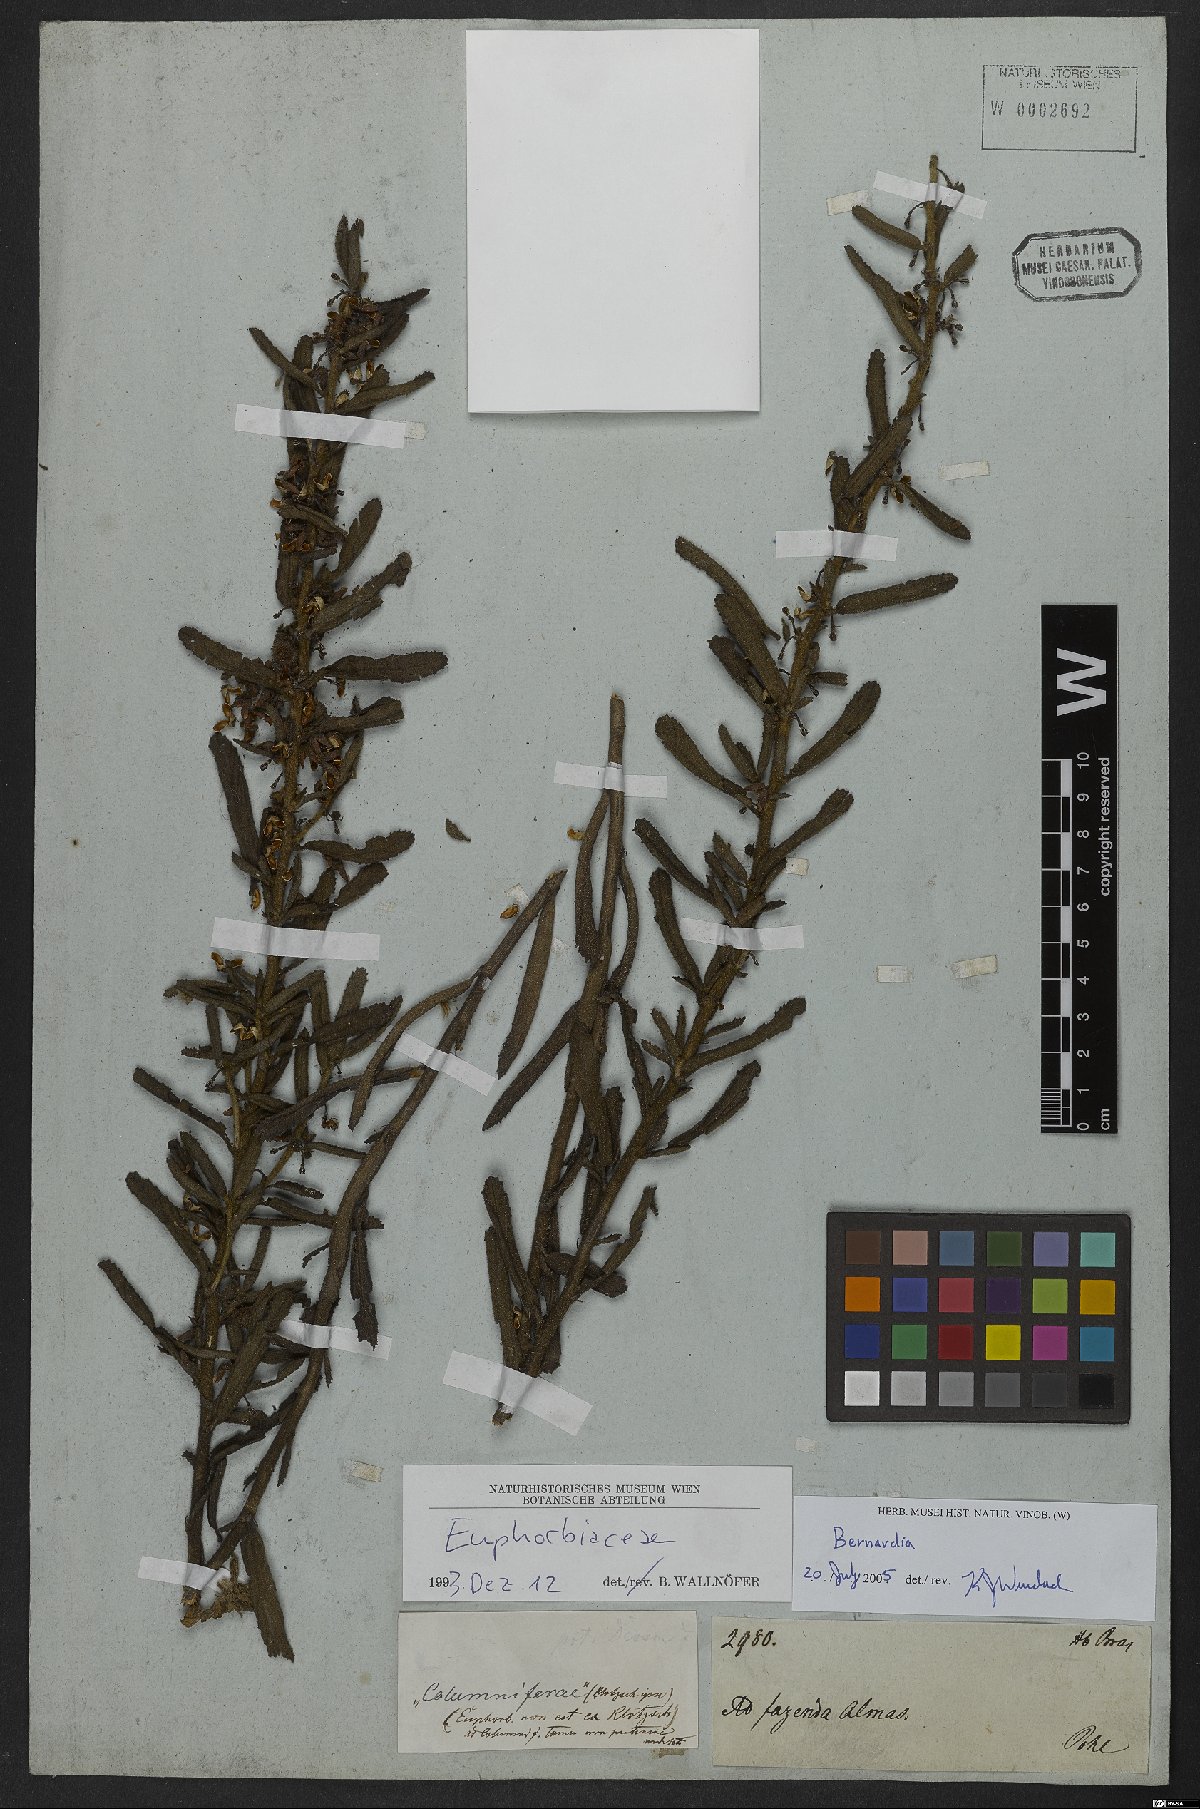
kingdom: Plantae
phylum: Tracheophyta
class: Magnoliopsida
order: Malpighiales
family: Euphorbiaceae
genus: Bernardia
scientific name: Bernardia
